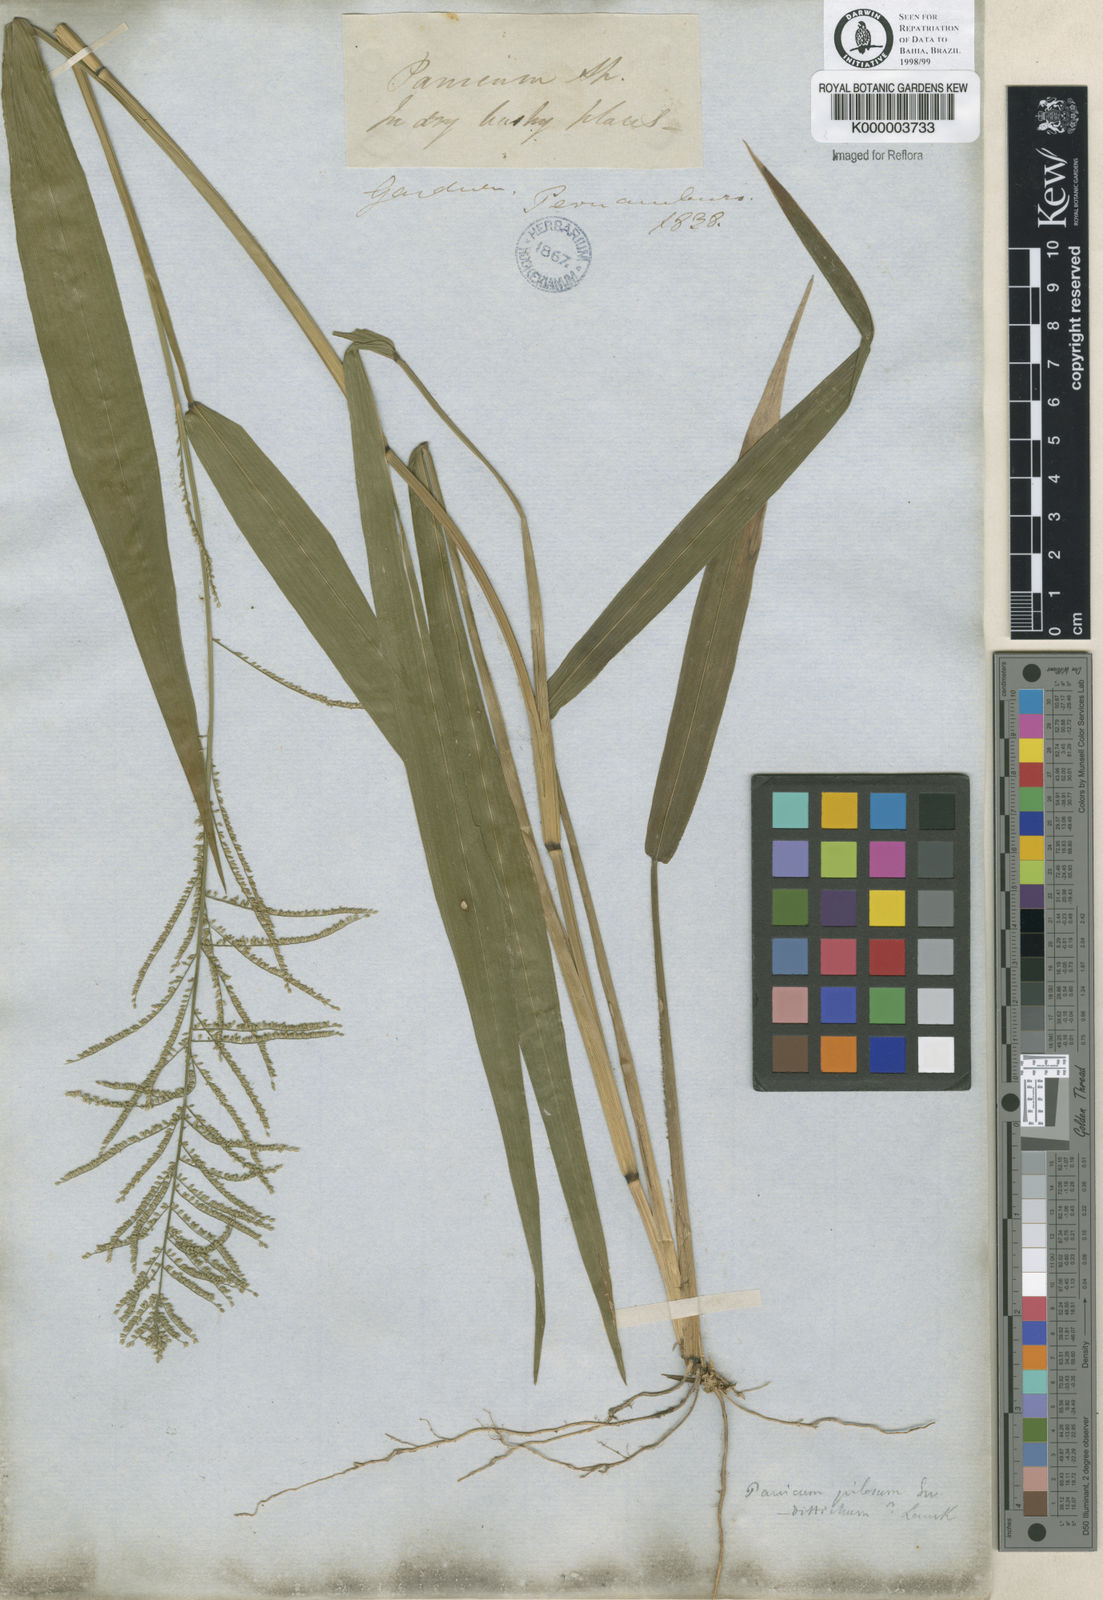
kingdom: Plantae
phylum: Tracheophyta
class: Liliopsida
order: Poales
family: Poaceae
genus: Rugoloa
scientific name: Rugoloa pilosa
